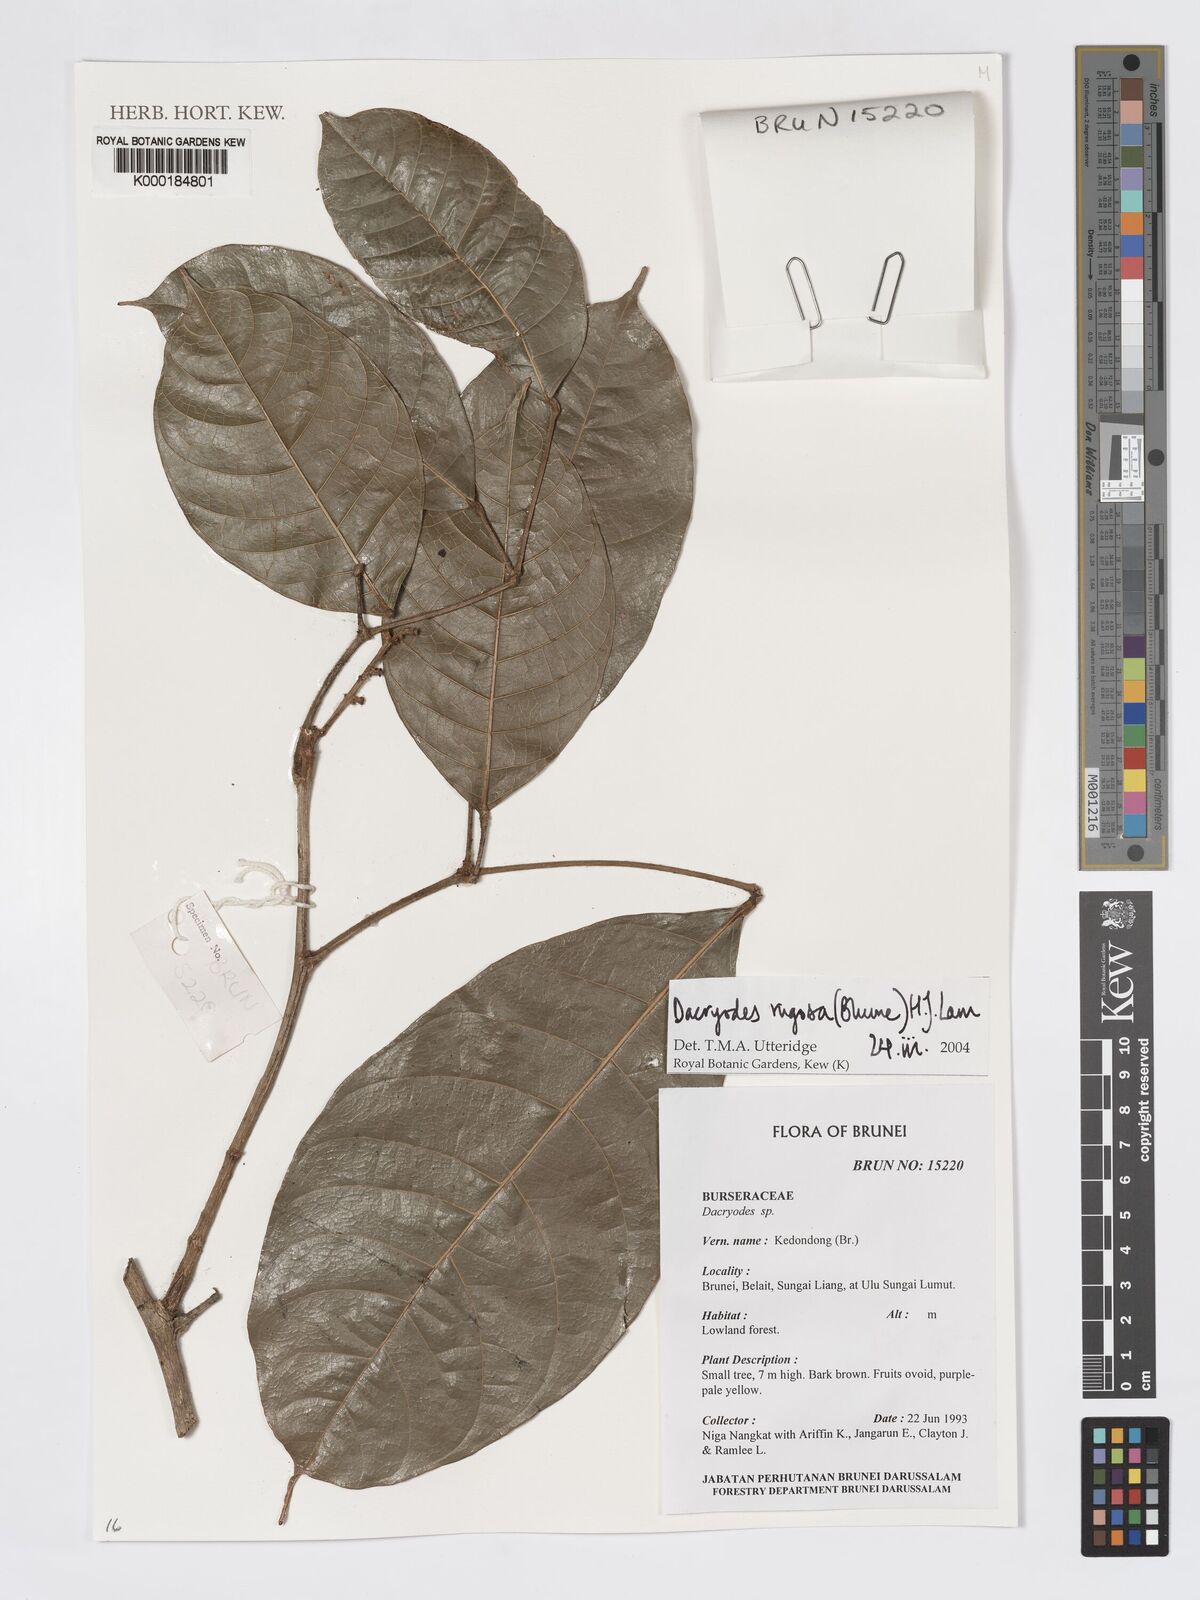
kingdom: Plantae
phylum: Tracheophyta
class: Magnoliopsida
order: Sapindales
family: Burseraceae
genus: Dacryodes
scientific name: Dacryodes rugosa
